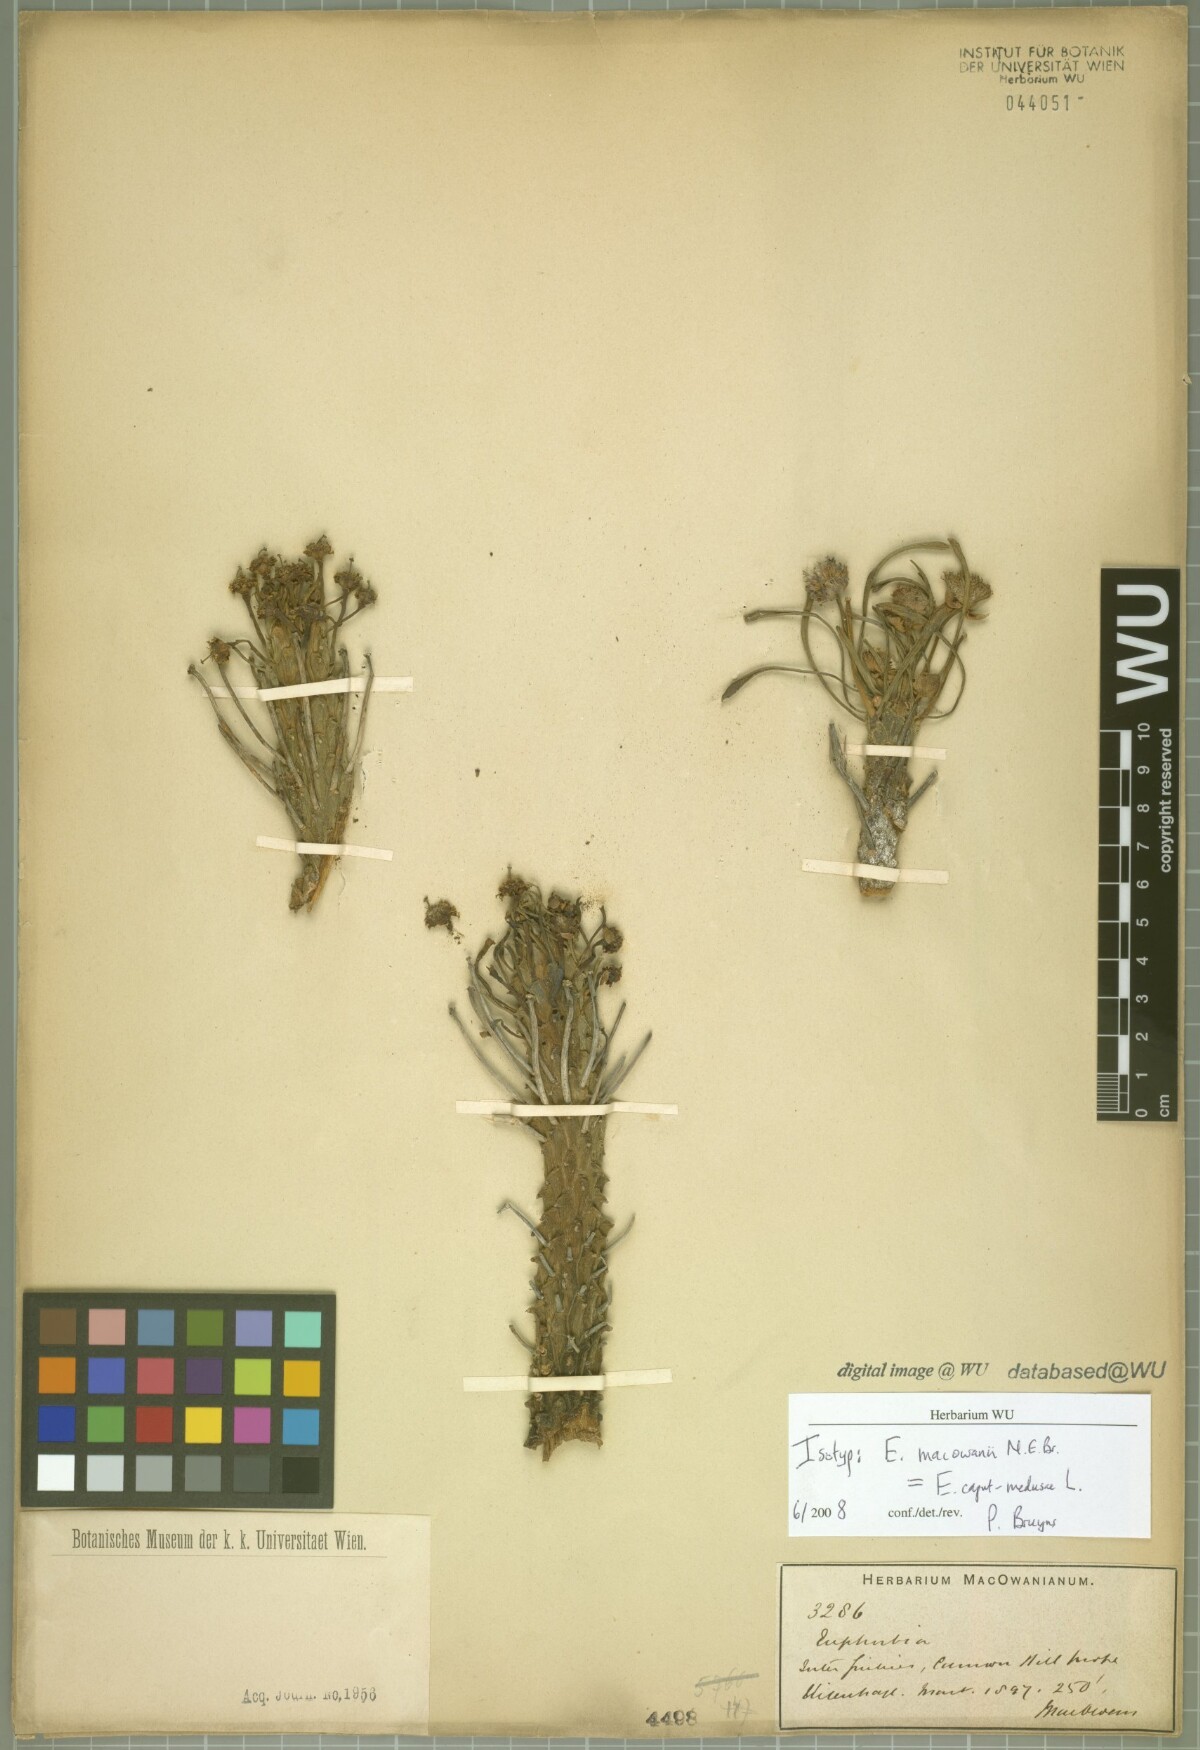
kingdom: Plantae
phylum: Tracheophyta
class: Magnoliopsida
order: Malpighiales
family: Euphorbiaceae
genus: Euphorbia
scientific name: Euphorbia tuberculata
